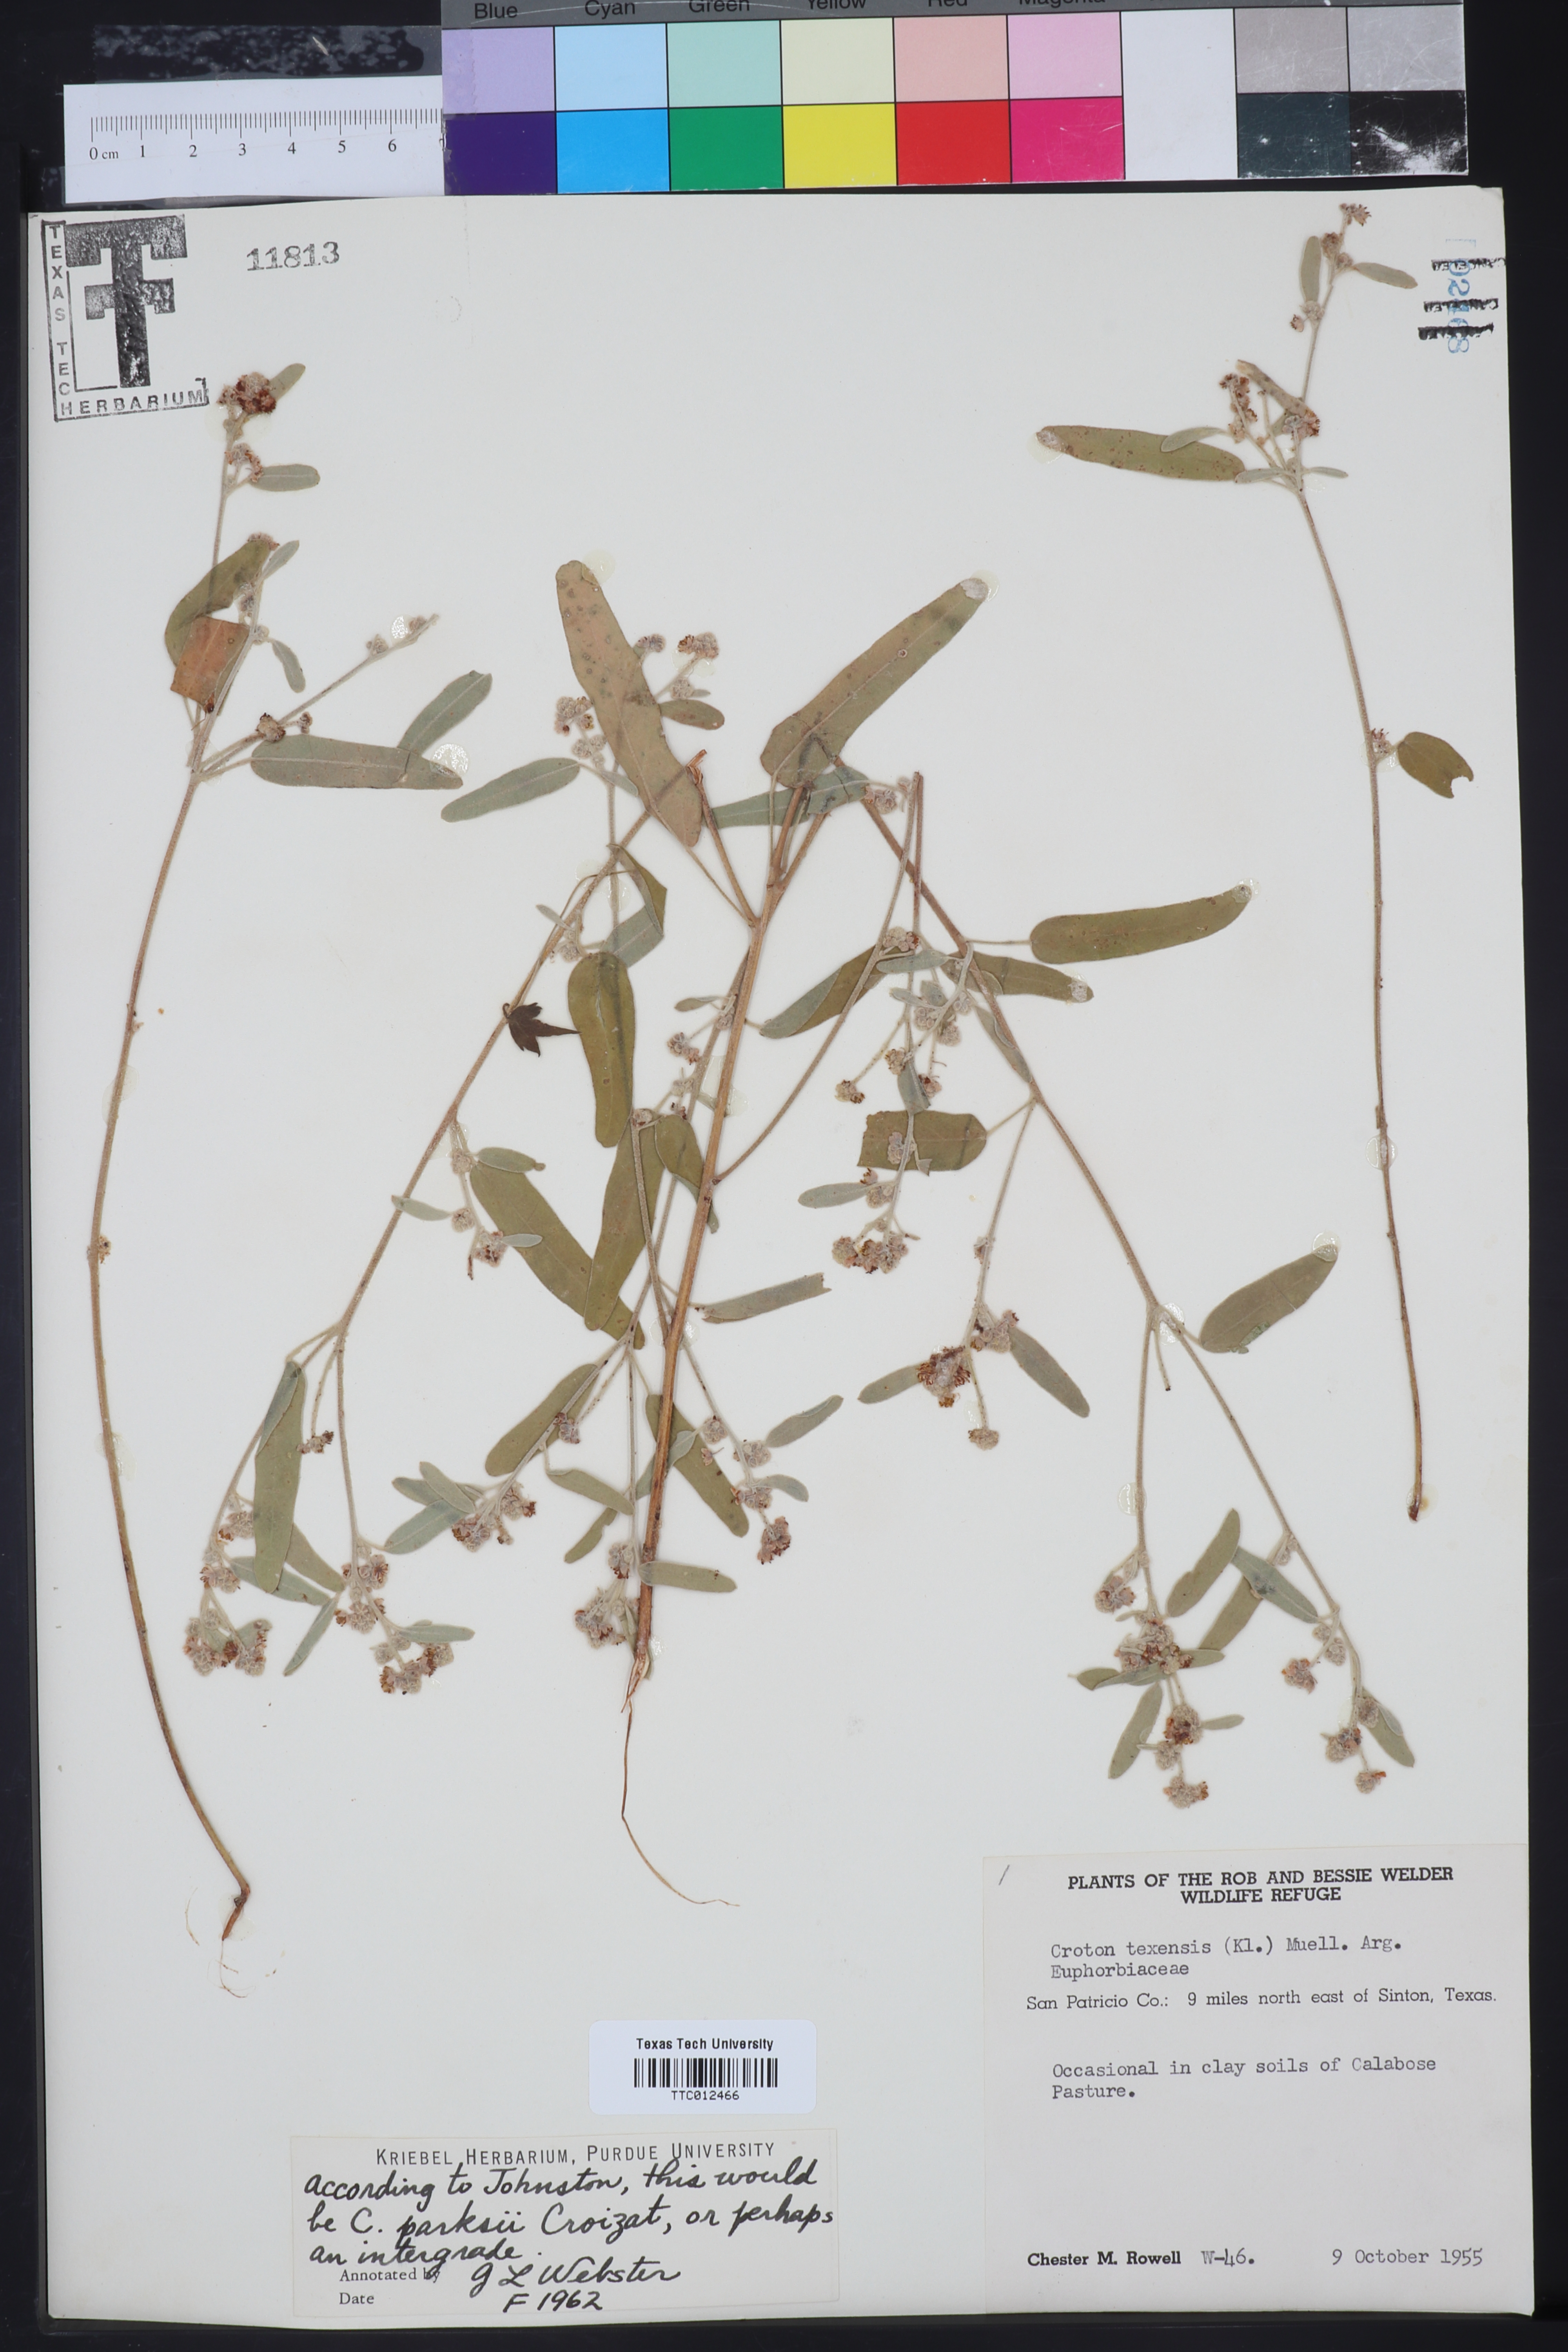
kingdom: Plantae
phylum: Tracheophyta
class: Magnoliopsida
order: Malpighiales
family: Euphorbiaceae
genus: Croton
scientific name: Croton parksii
